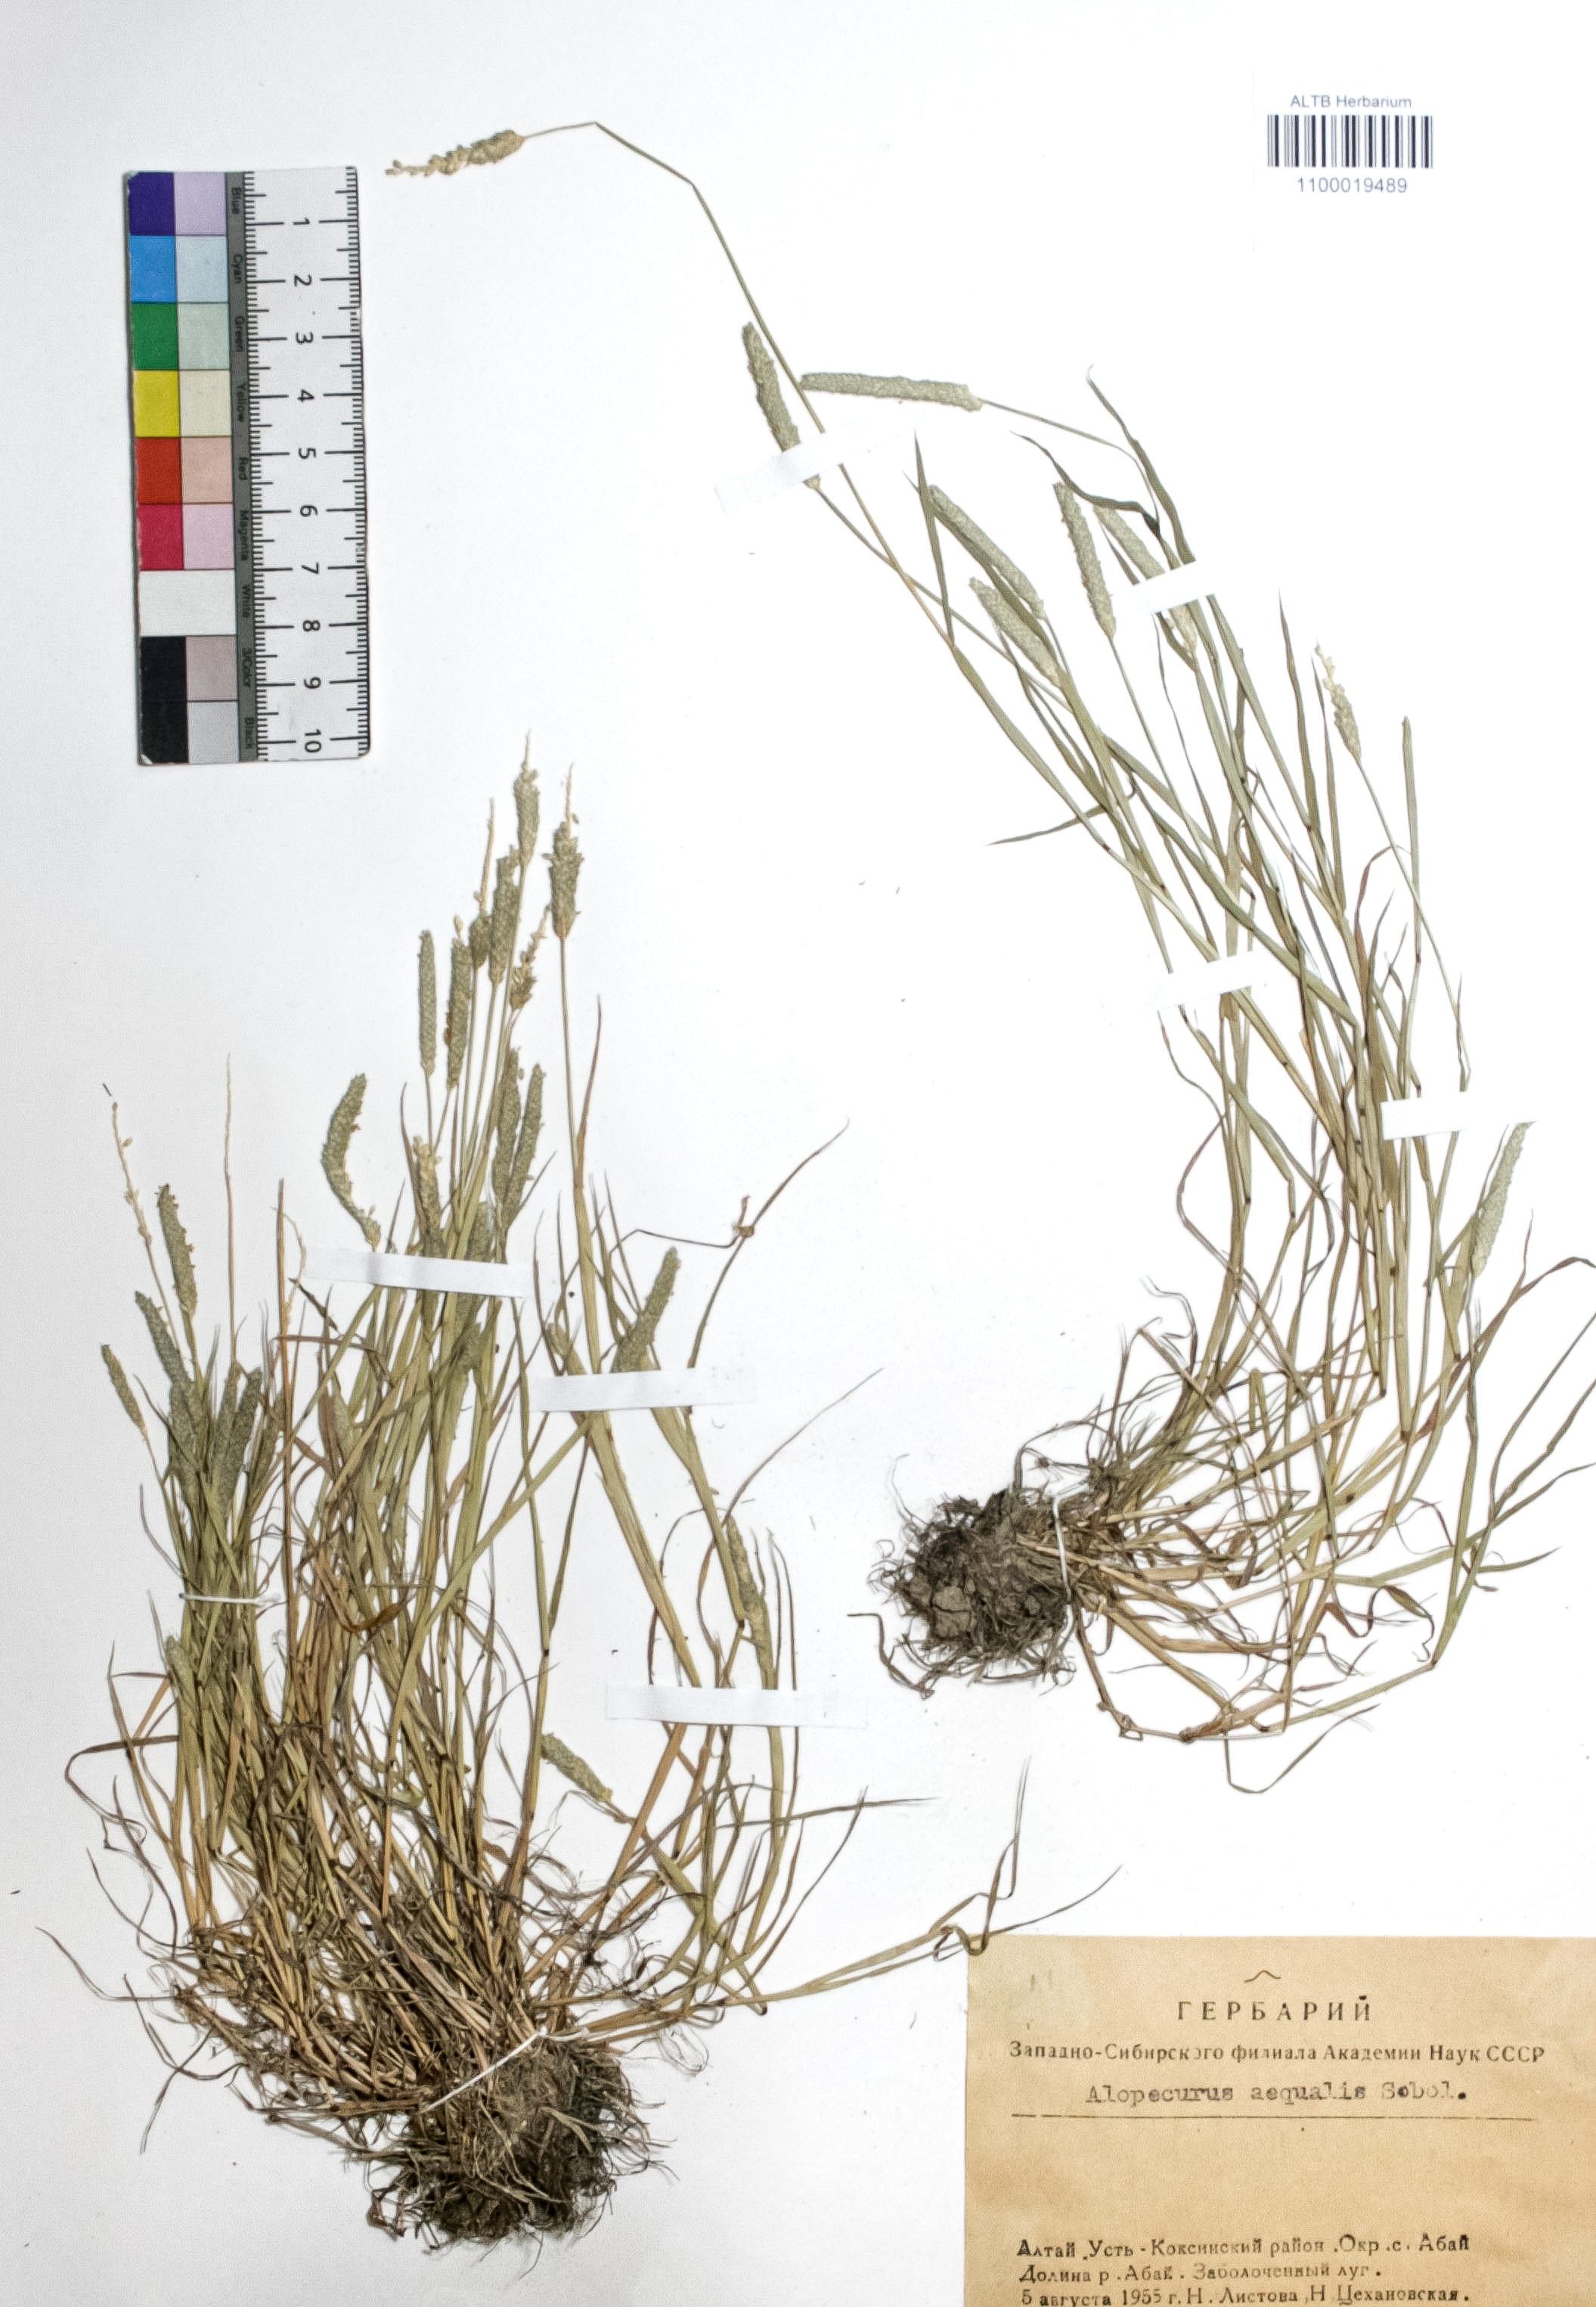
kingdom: Plantae
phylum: Tracheophyta
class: Liliopsida
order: Poales
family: Poaceae
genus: Alopecurus
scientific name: Alopecurus aequalis
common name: Orange foxtail
